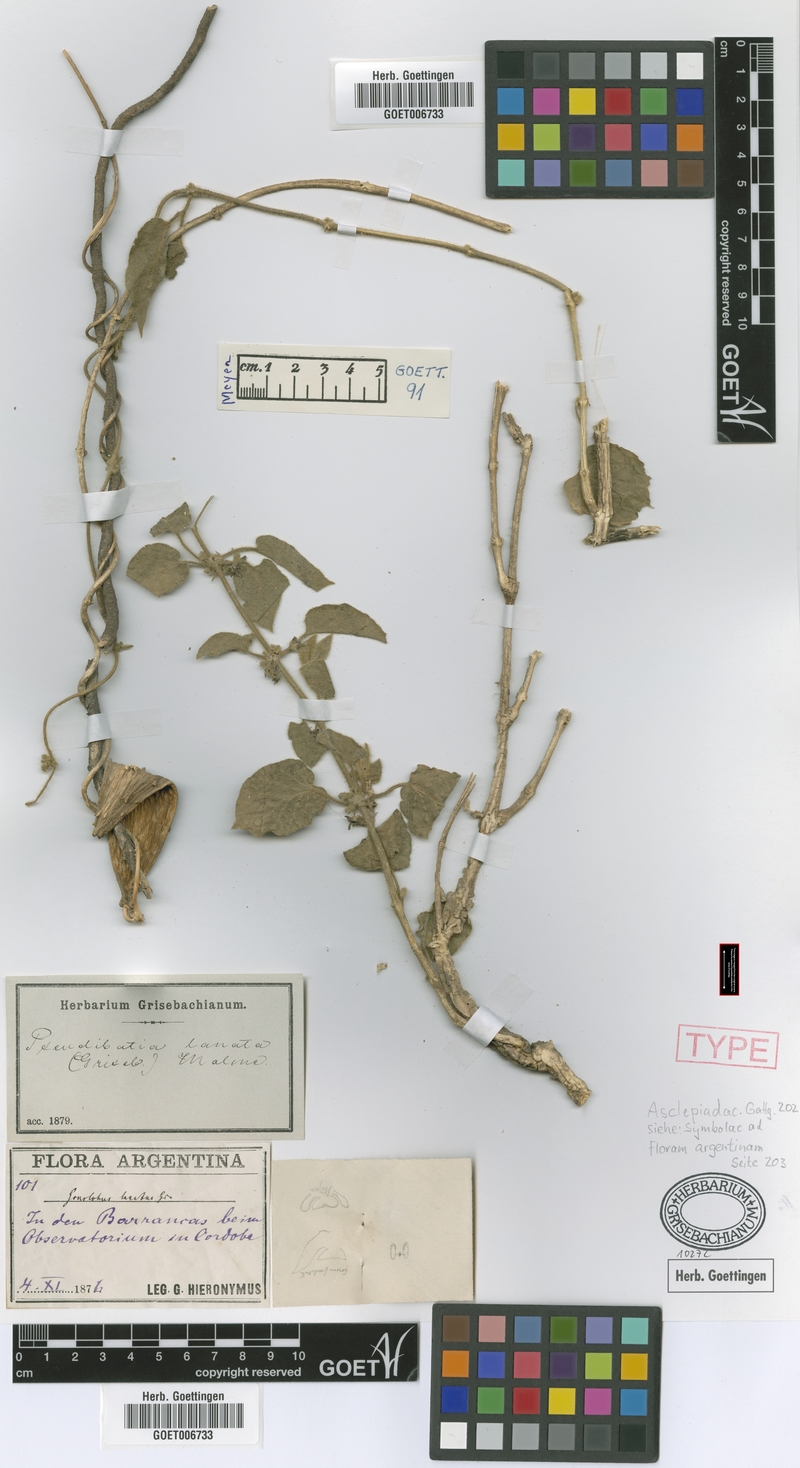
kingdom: Plantae
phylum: Tracheophyta
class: Magnoliopsida
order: Gentianales
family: Apocynaceae
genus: Ibatia
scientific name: Ibatia foetida
